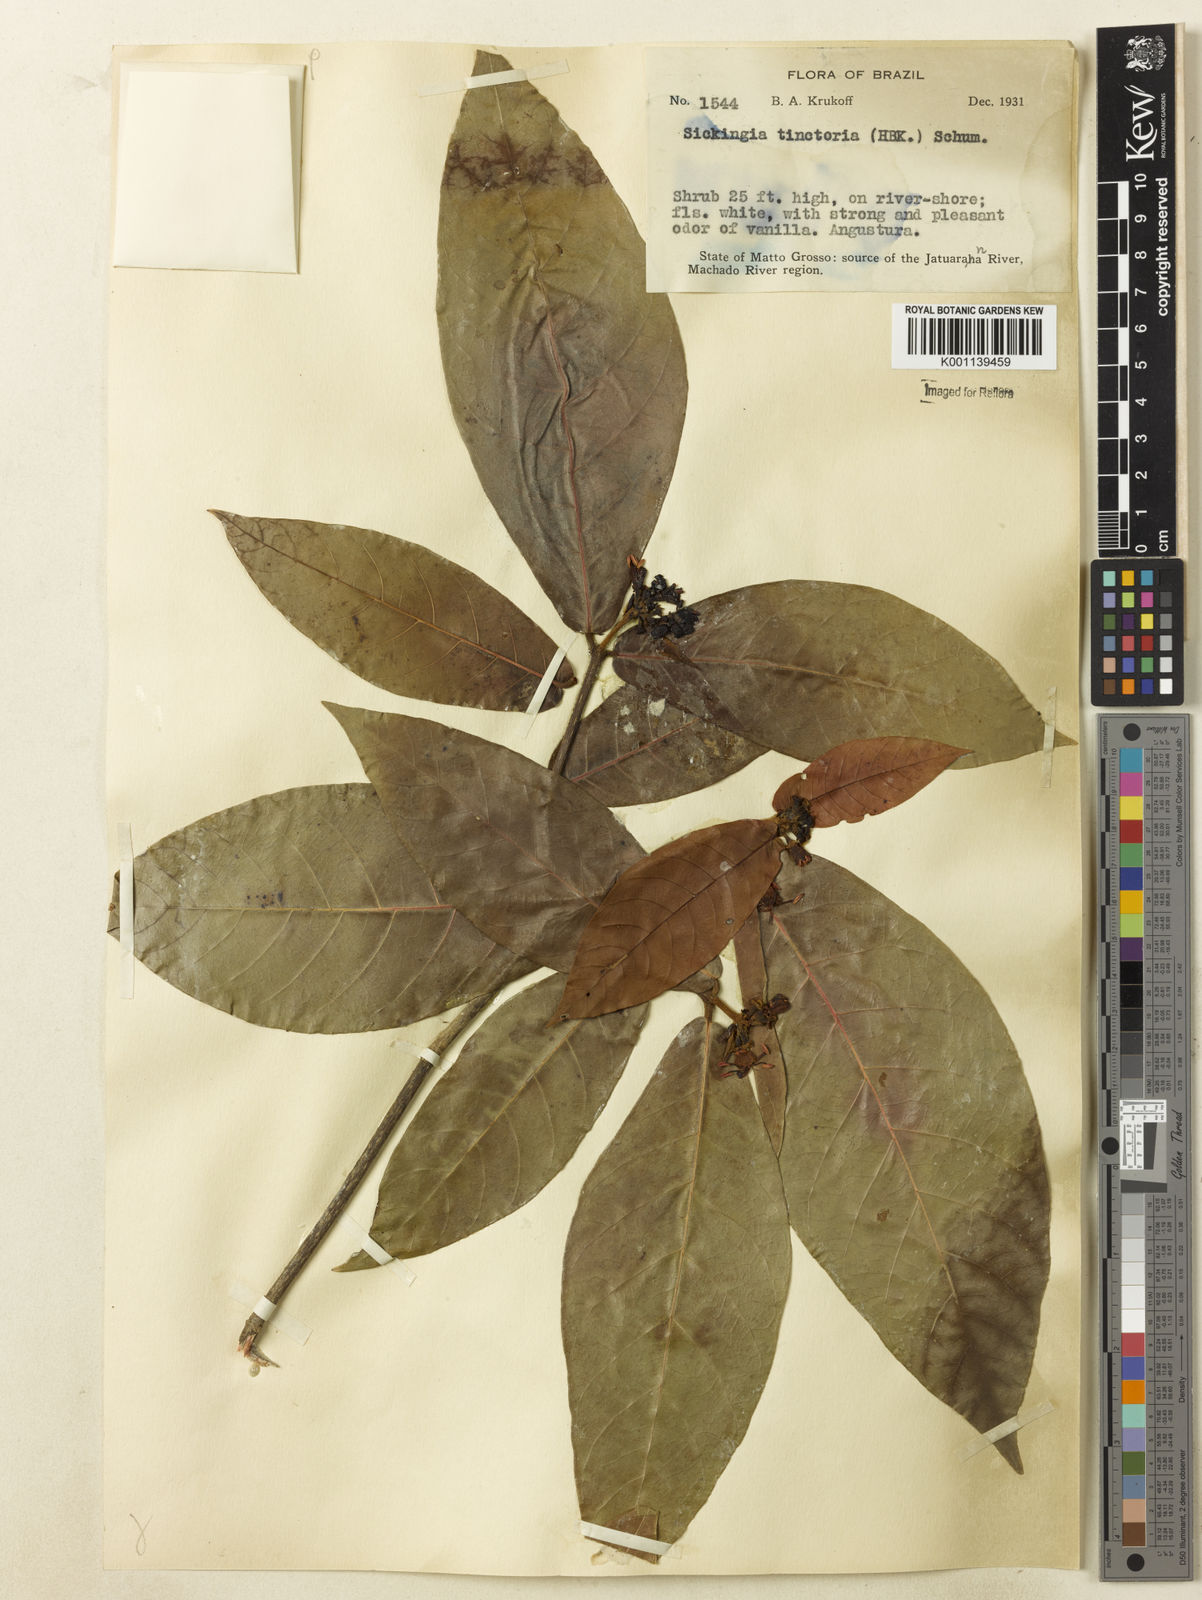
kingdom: Plantae
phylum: Tracheophyta
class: Magnoliopsida
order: Gentianales
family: Rubiaceae
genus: Simira
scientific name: Simira rubescens
